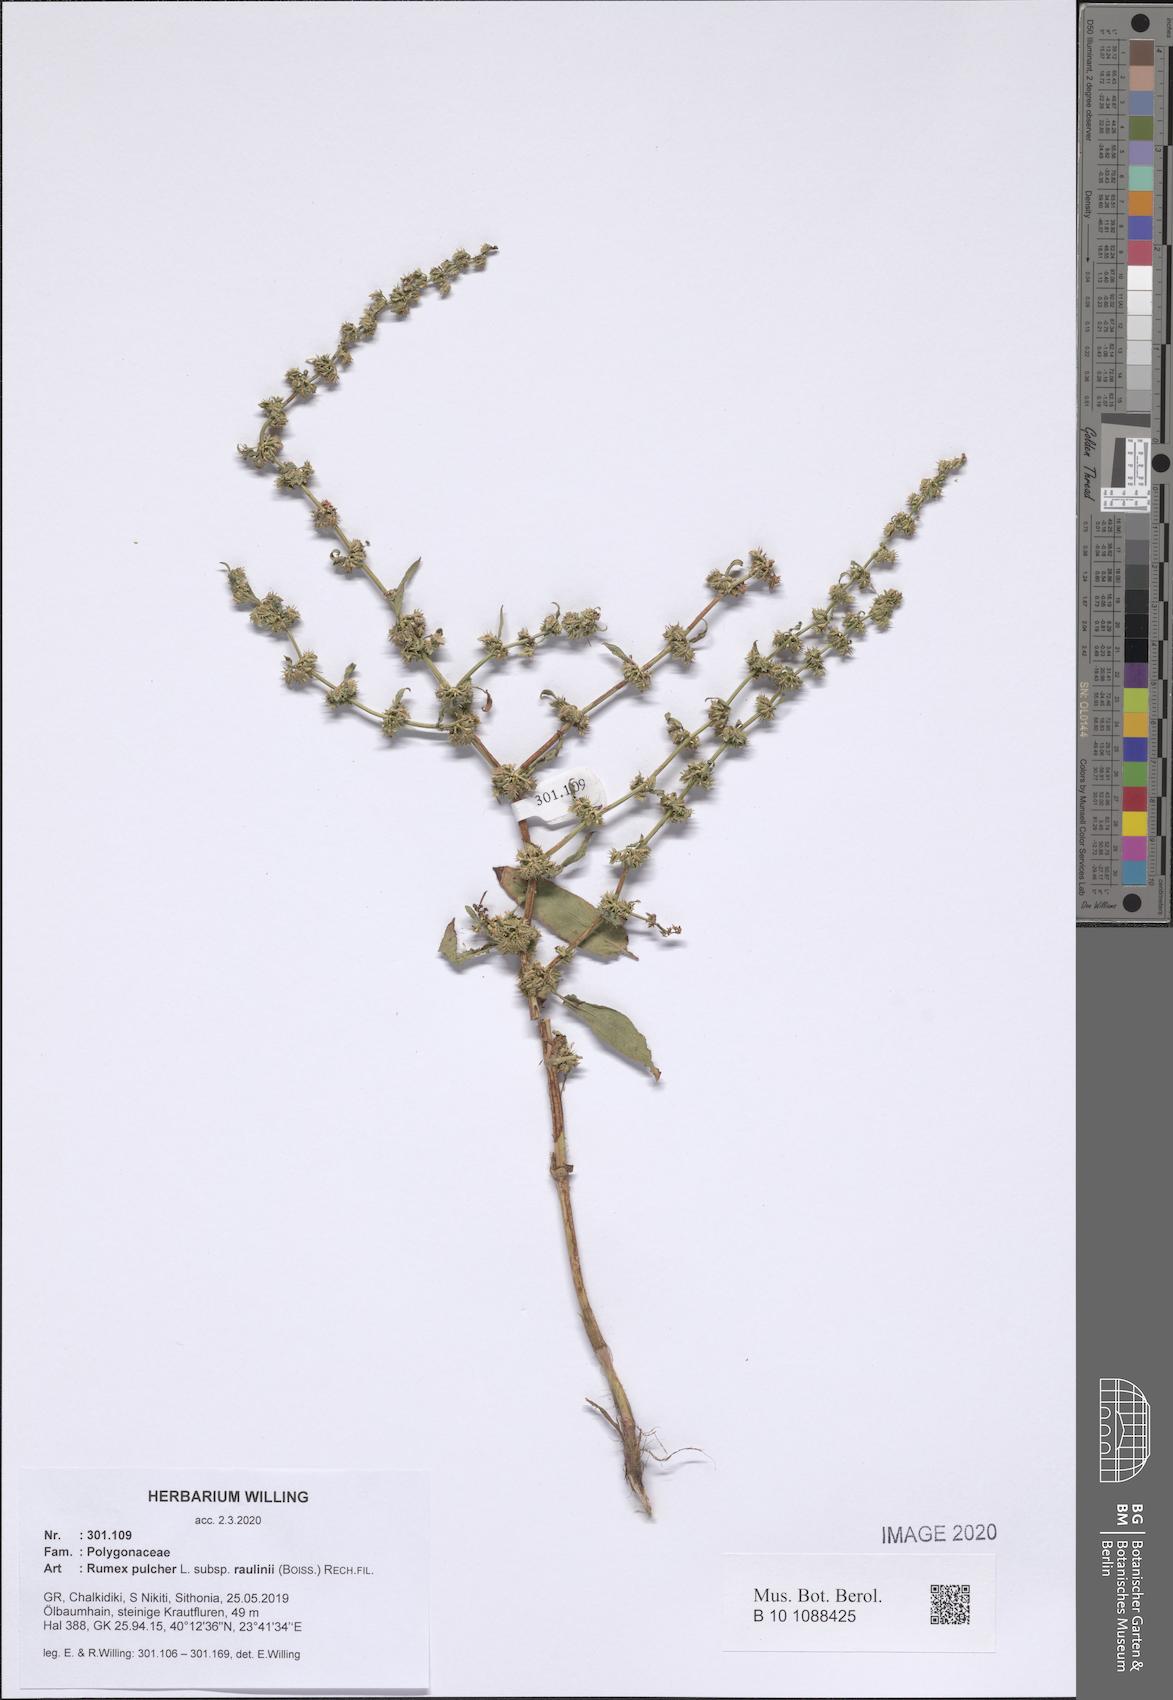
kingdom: Plantae
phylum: Tracheophyta
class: Magnoliopsida
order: Caryophyllales
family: Polygonaceae
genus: Rumex
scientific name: Rumex pulcher
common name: Fiddle dock
